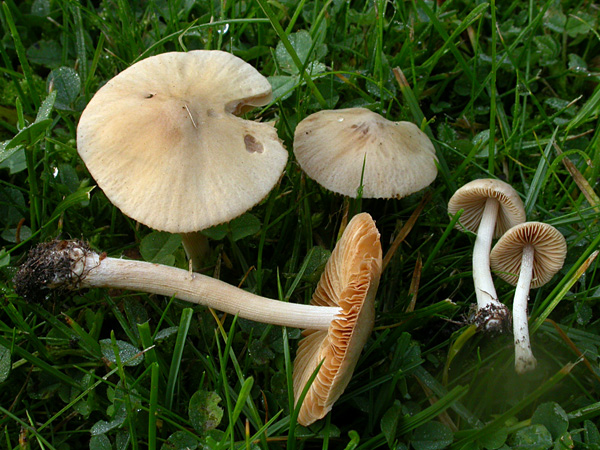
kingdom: Fungi
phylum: Basidiomycota
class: Agaricomycetes
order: Agaricales
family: Bolbitiaceae
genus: Conocybe
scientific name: Conocybe inocybeoides
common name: knold-keglehat
